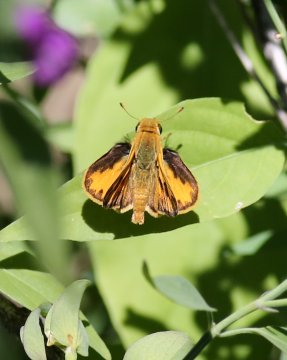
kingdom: Animalia
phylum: Arthropoda
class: Insecta
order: Lepidoptera
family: Hesperiidae
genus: Hylephila
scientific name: Hylephila phyleus
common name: Fiery Skipper
